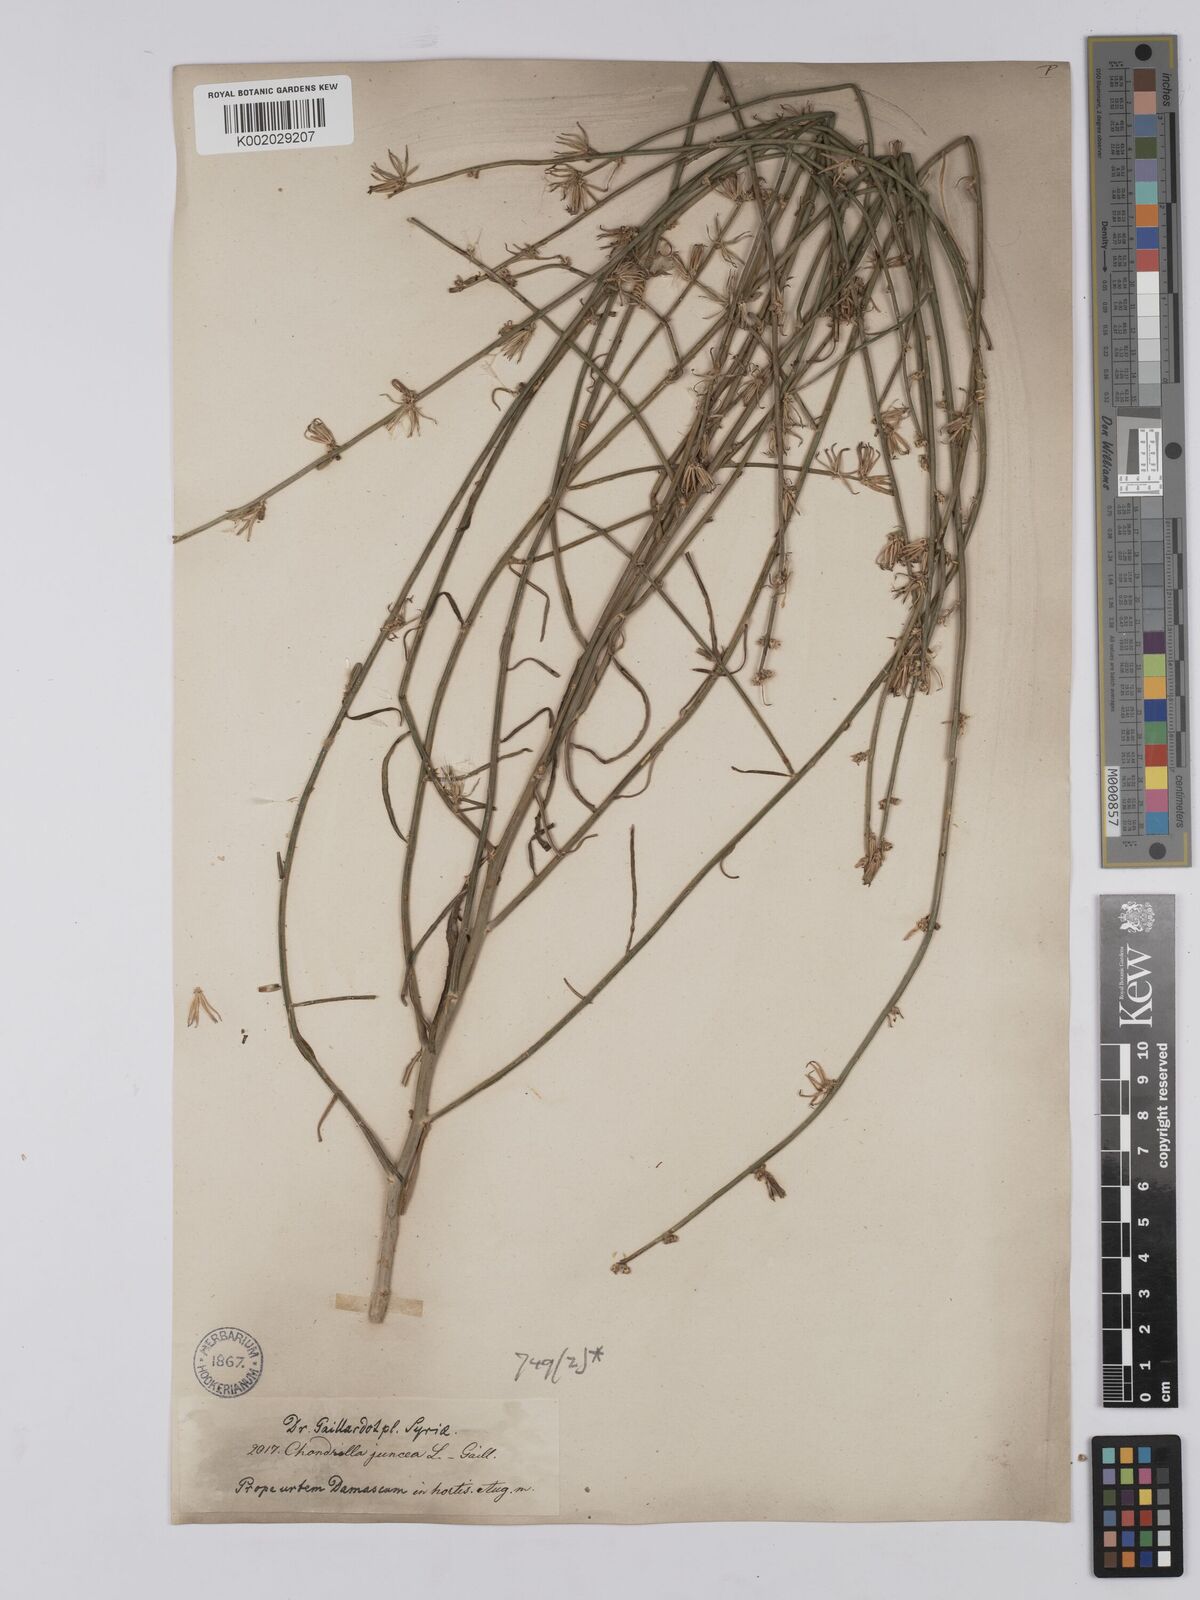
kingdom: Plantae
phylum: Tracheophyta
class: Magnoliopsida
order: Asterales
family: Asteraceae
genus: Chondrilla
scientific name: Chondrilla juncea
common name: Skeleton weed
